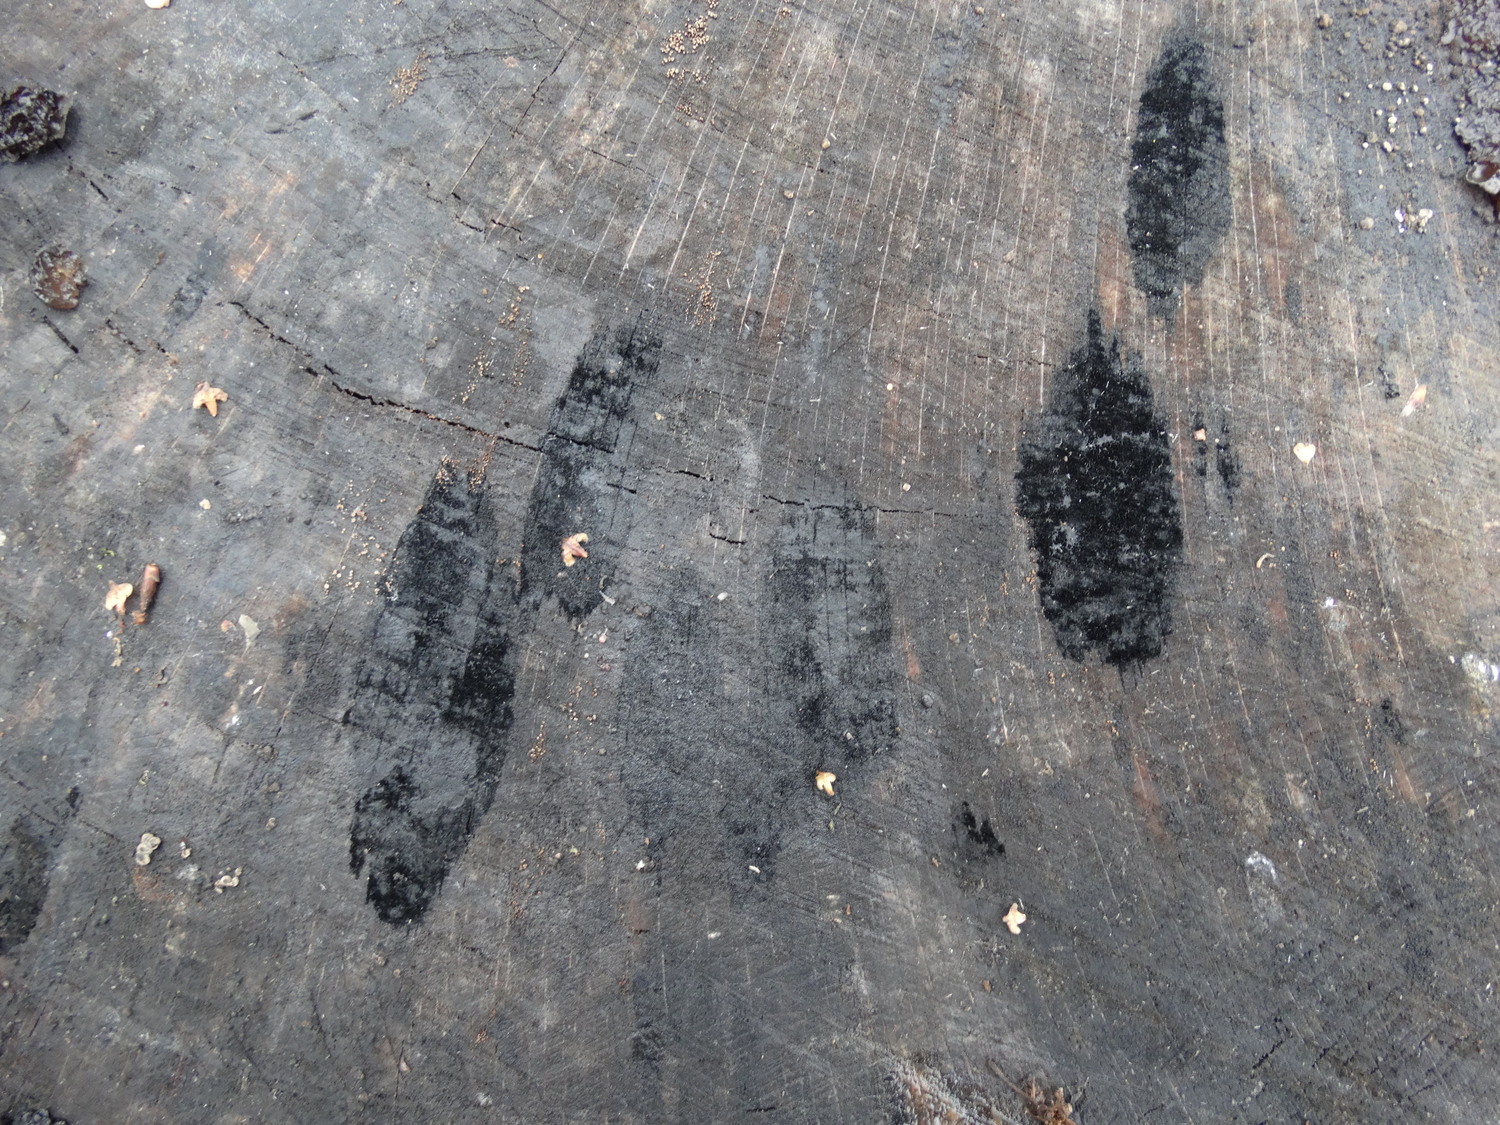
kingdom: Fungi
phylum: Ascomycota
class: Leotiomycetes
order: Helotiales
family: Helotiaceae
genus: Bispora
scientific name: Bispora pallescens
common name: måtte-snitskive
